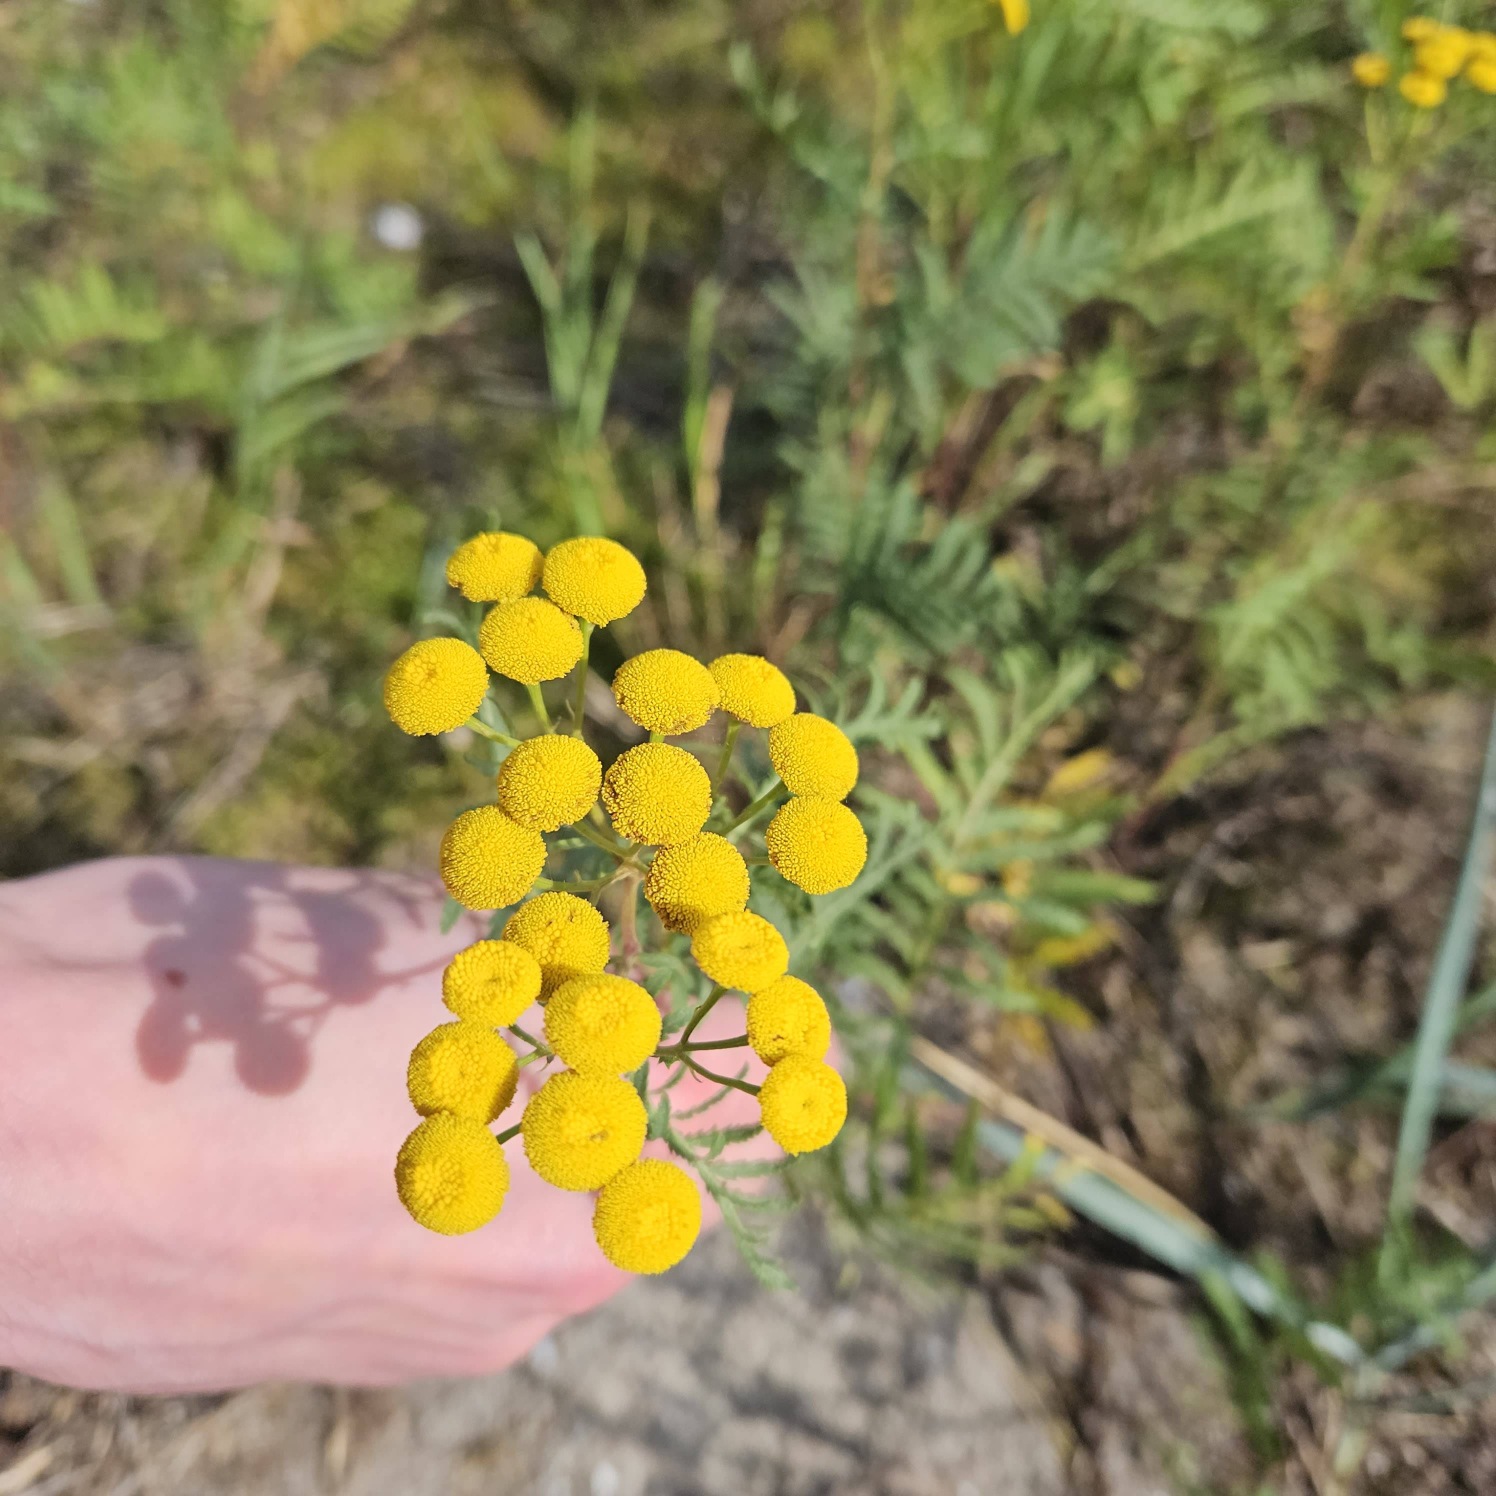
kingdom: Plantae
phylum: Tracheophyta
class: Magnoliopsida
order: Asterales
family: Asteraceae
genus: Tanacetum
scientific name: Tanacetum vulgare
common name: Rejnfan
